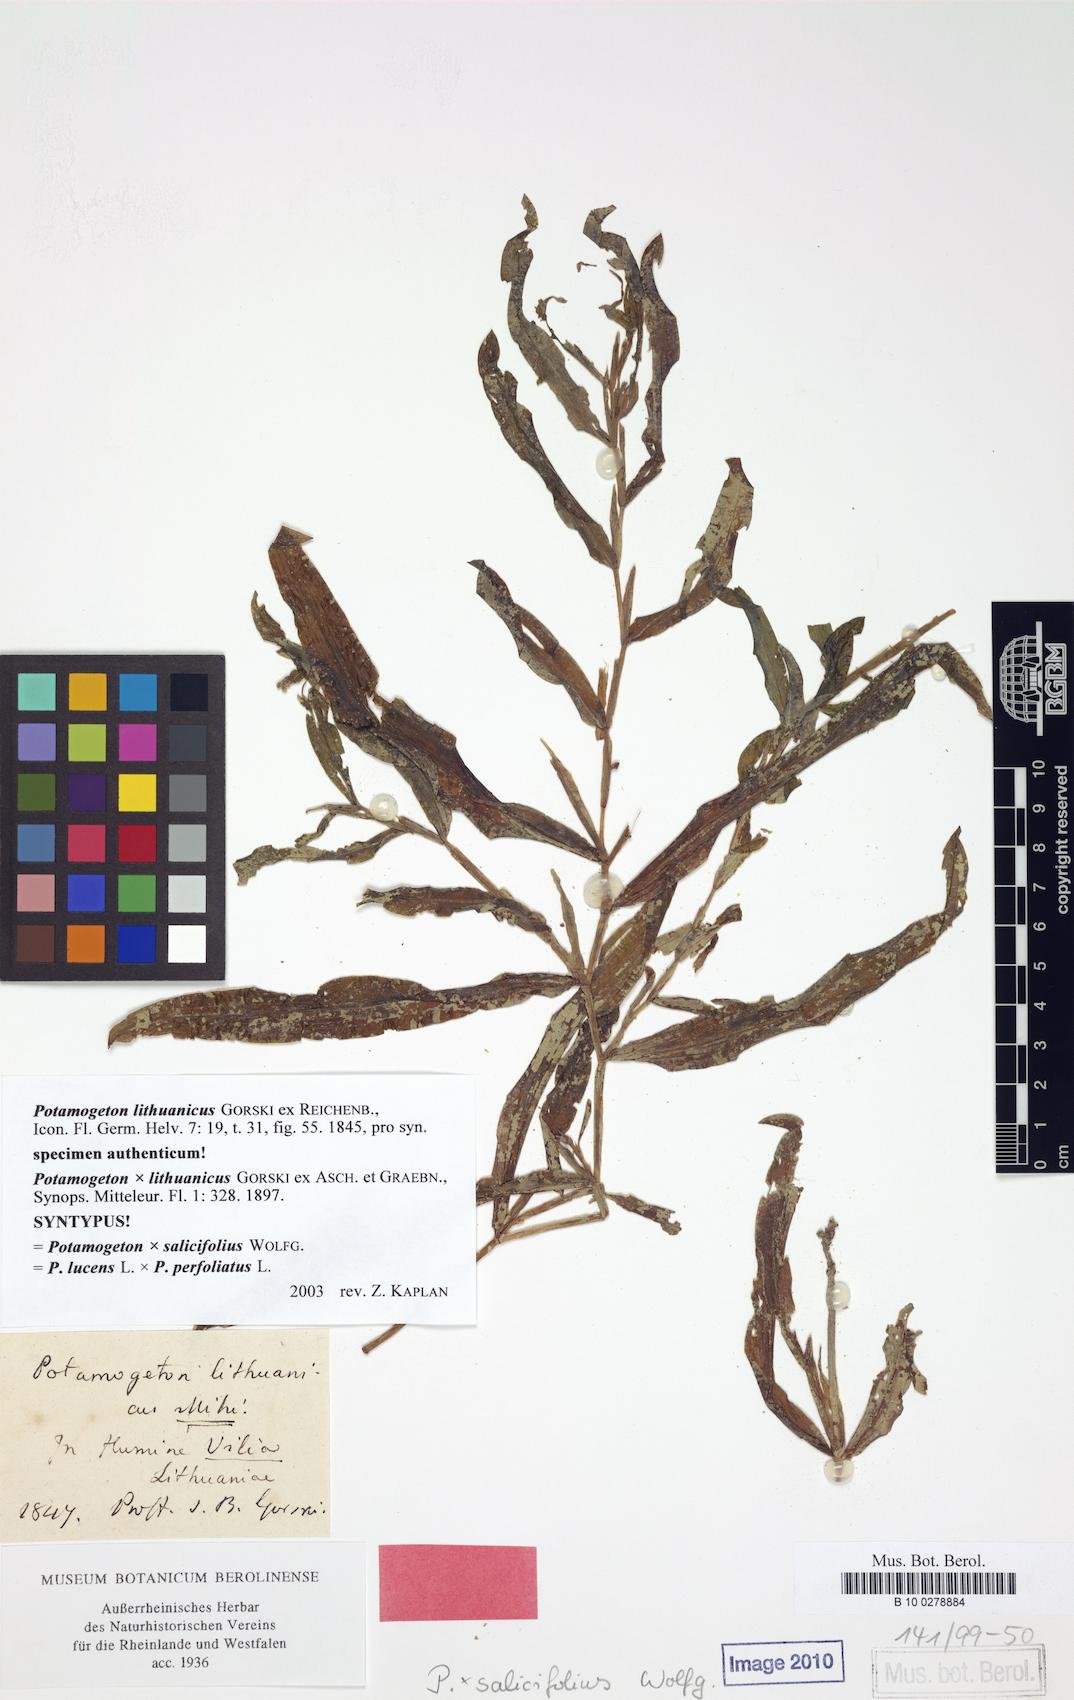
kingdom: Plantae
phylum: Tracheophyta
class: Liliopsida
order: Alismatales
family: Potamogetonaceae
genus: Potamogeton
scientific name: Potamogeton nitens
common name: Pondweed
